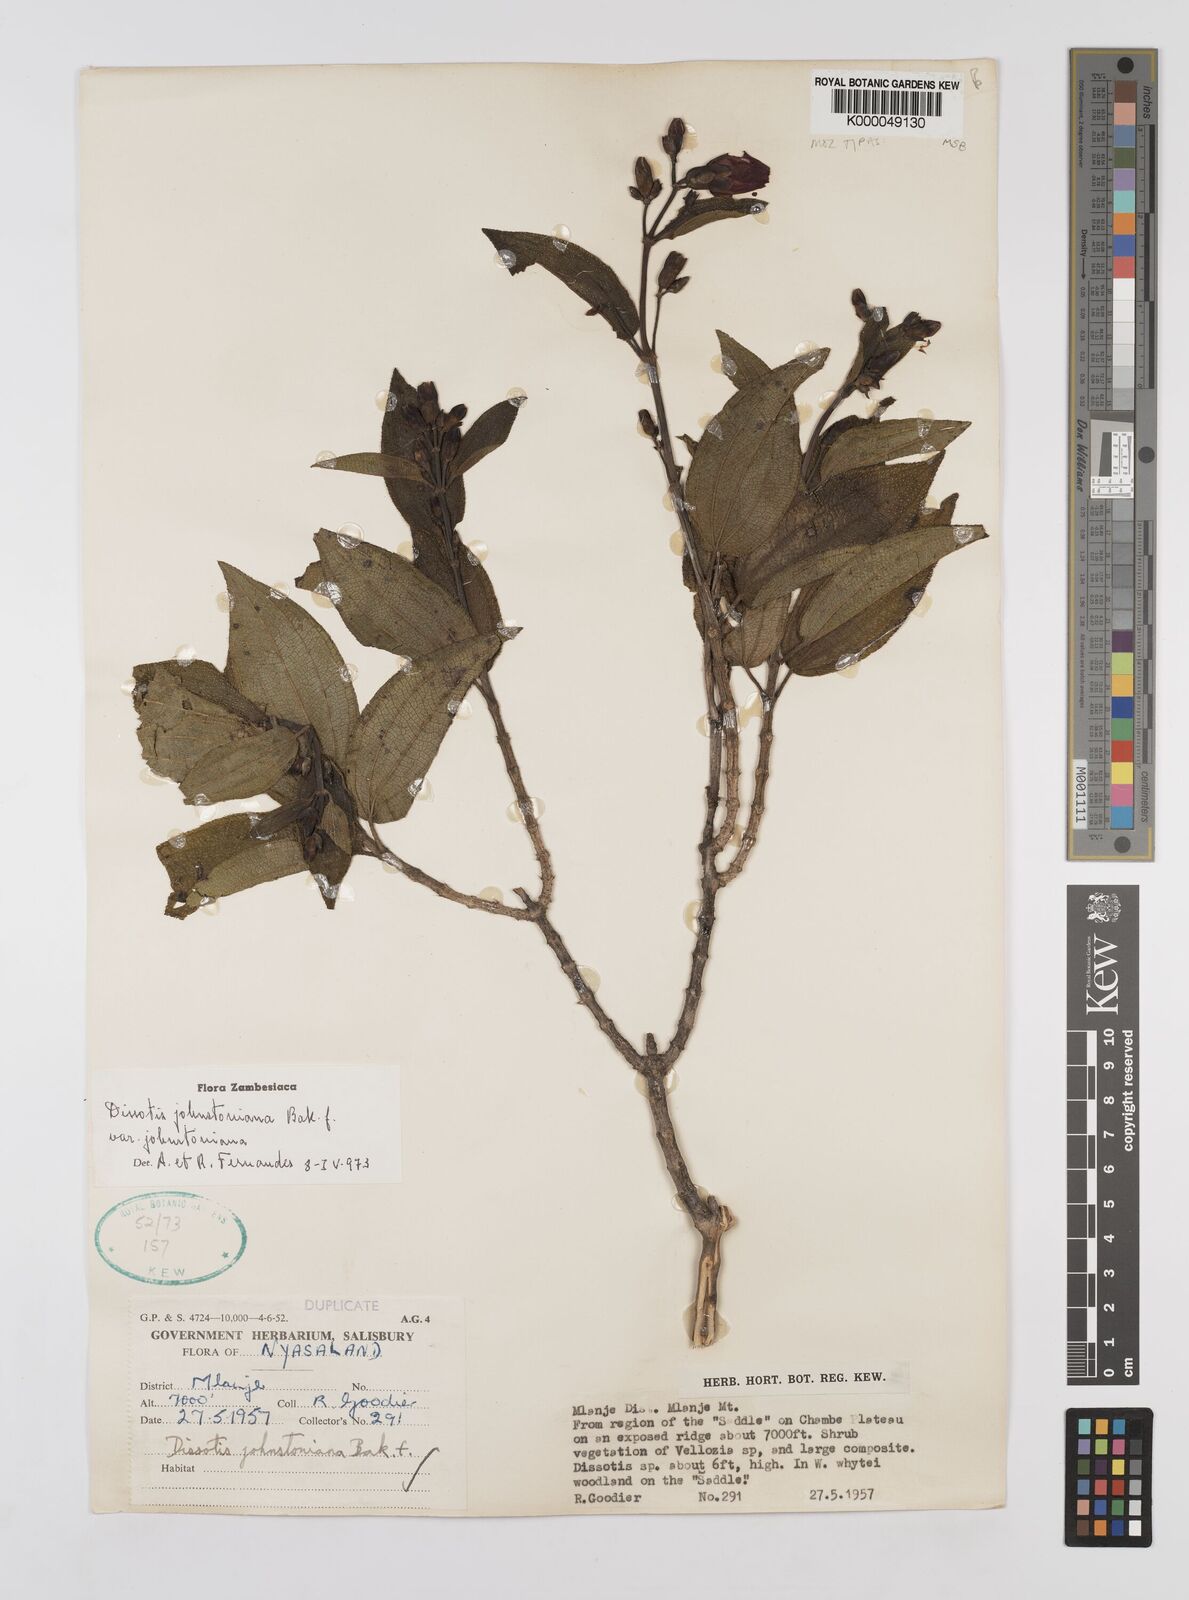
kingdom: Plantae
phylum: Tracheophyta
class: Magnoliopsida
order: Myrtales
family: Melastomataceae
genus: Dissotidendron
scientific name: Dissotidendron johnstonianum
